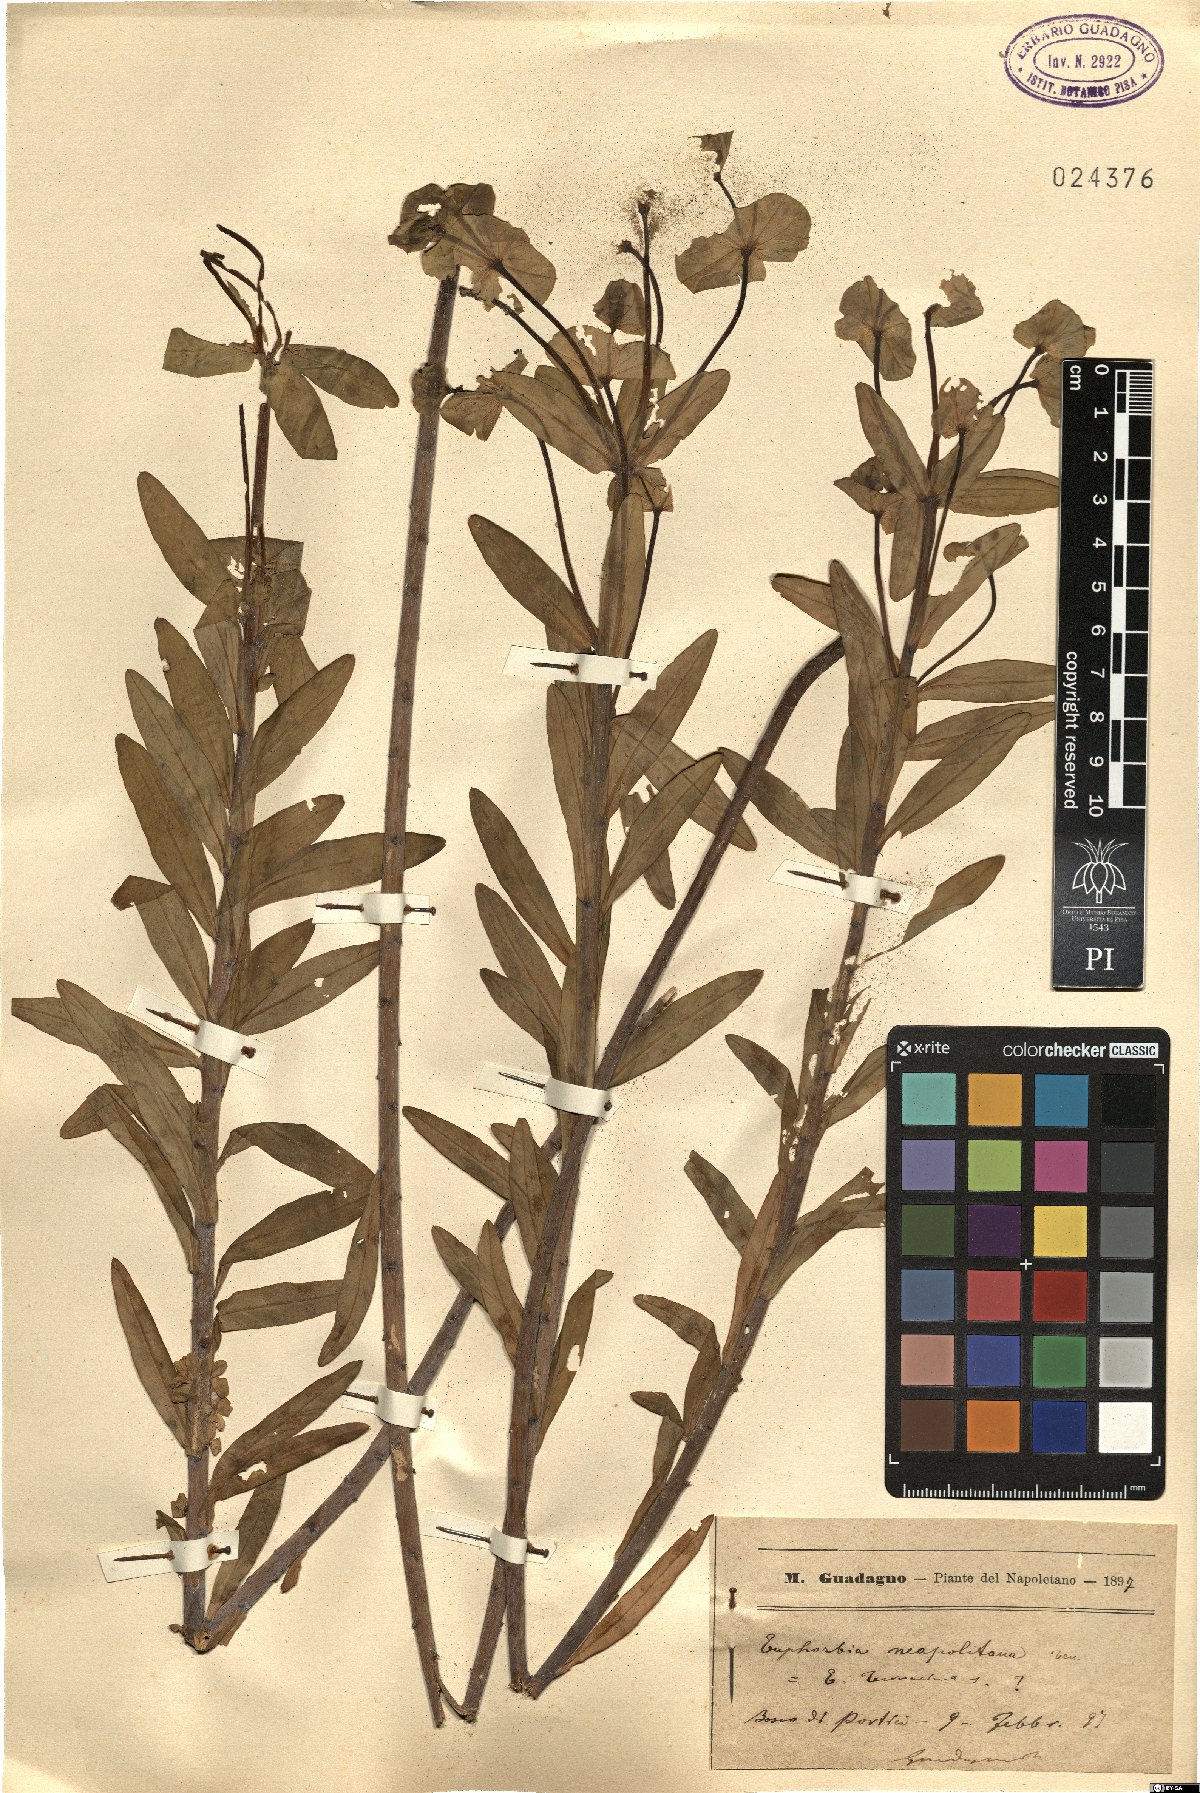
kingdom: Plantae
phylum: Tracheophyta
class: Magnoliopsida
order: Malpighiales
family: Euphorbiaceae
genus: Euphorbia
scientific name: Euphorbia terracina
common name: Geraldton carnation weed
